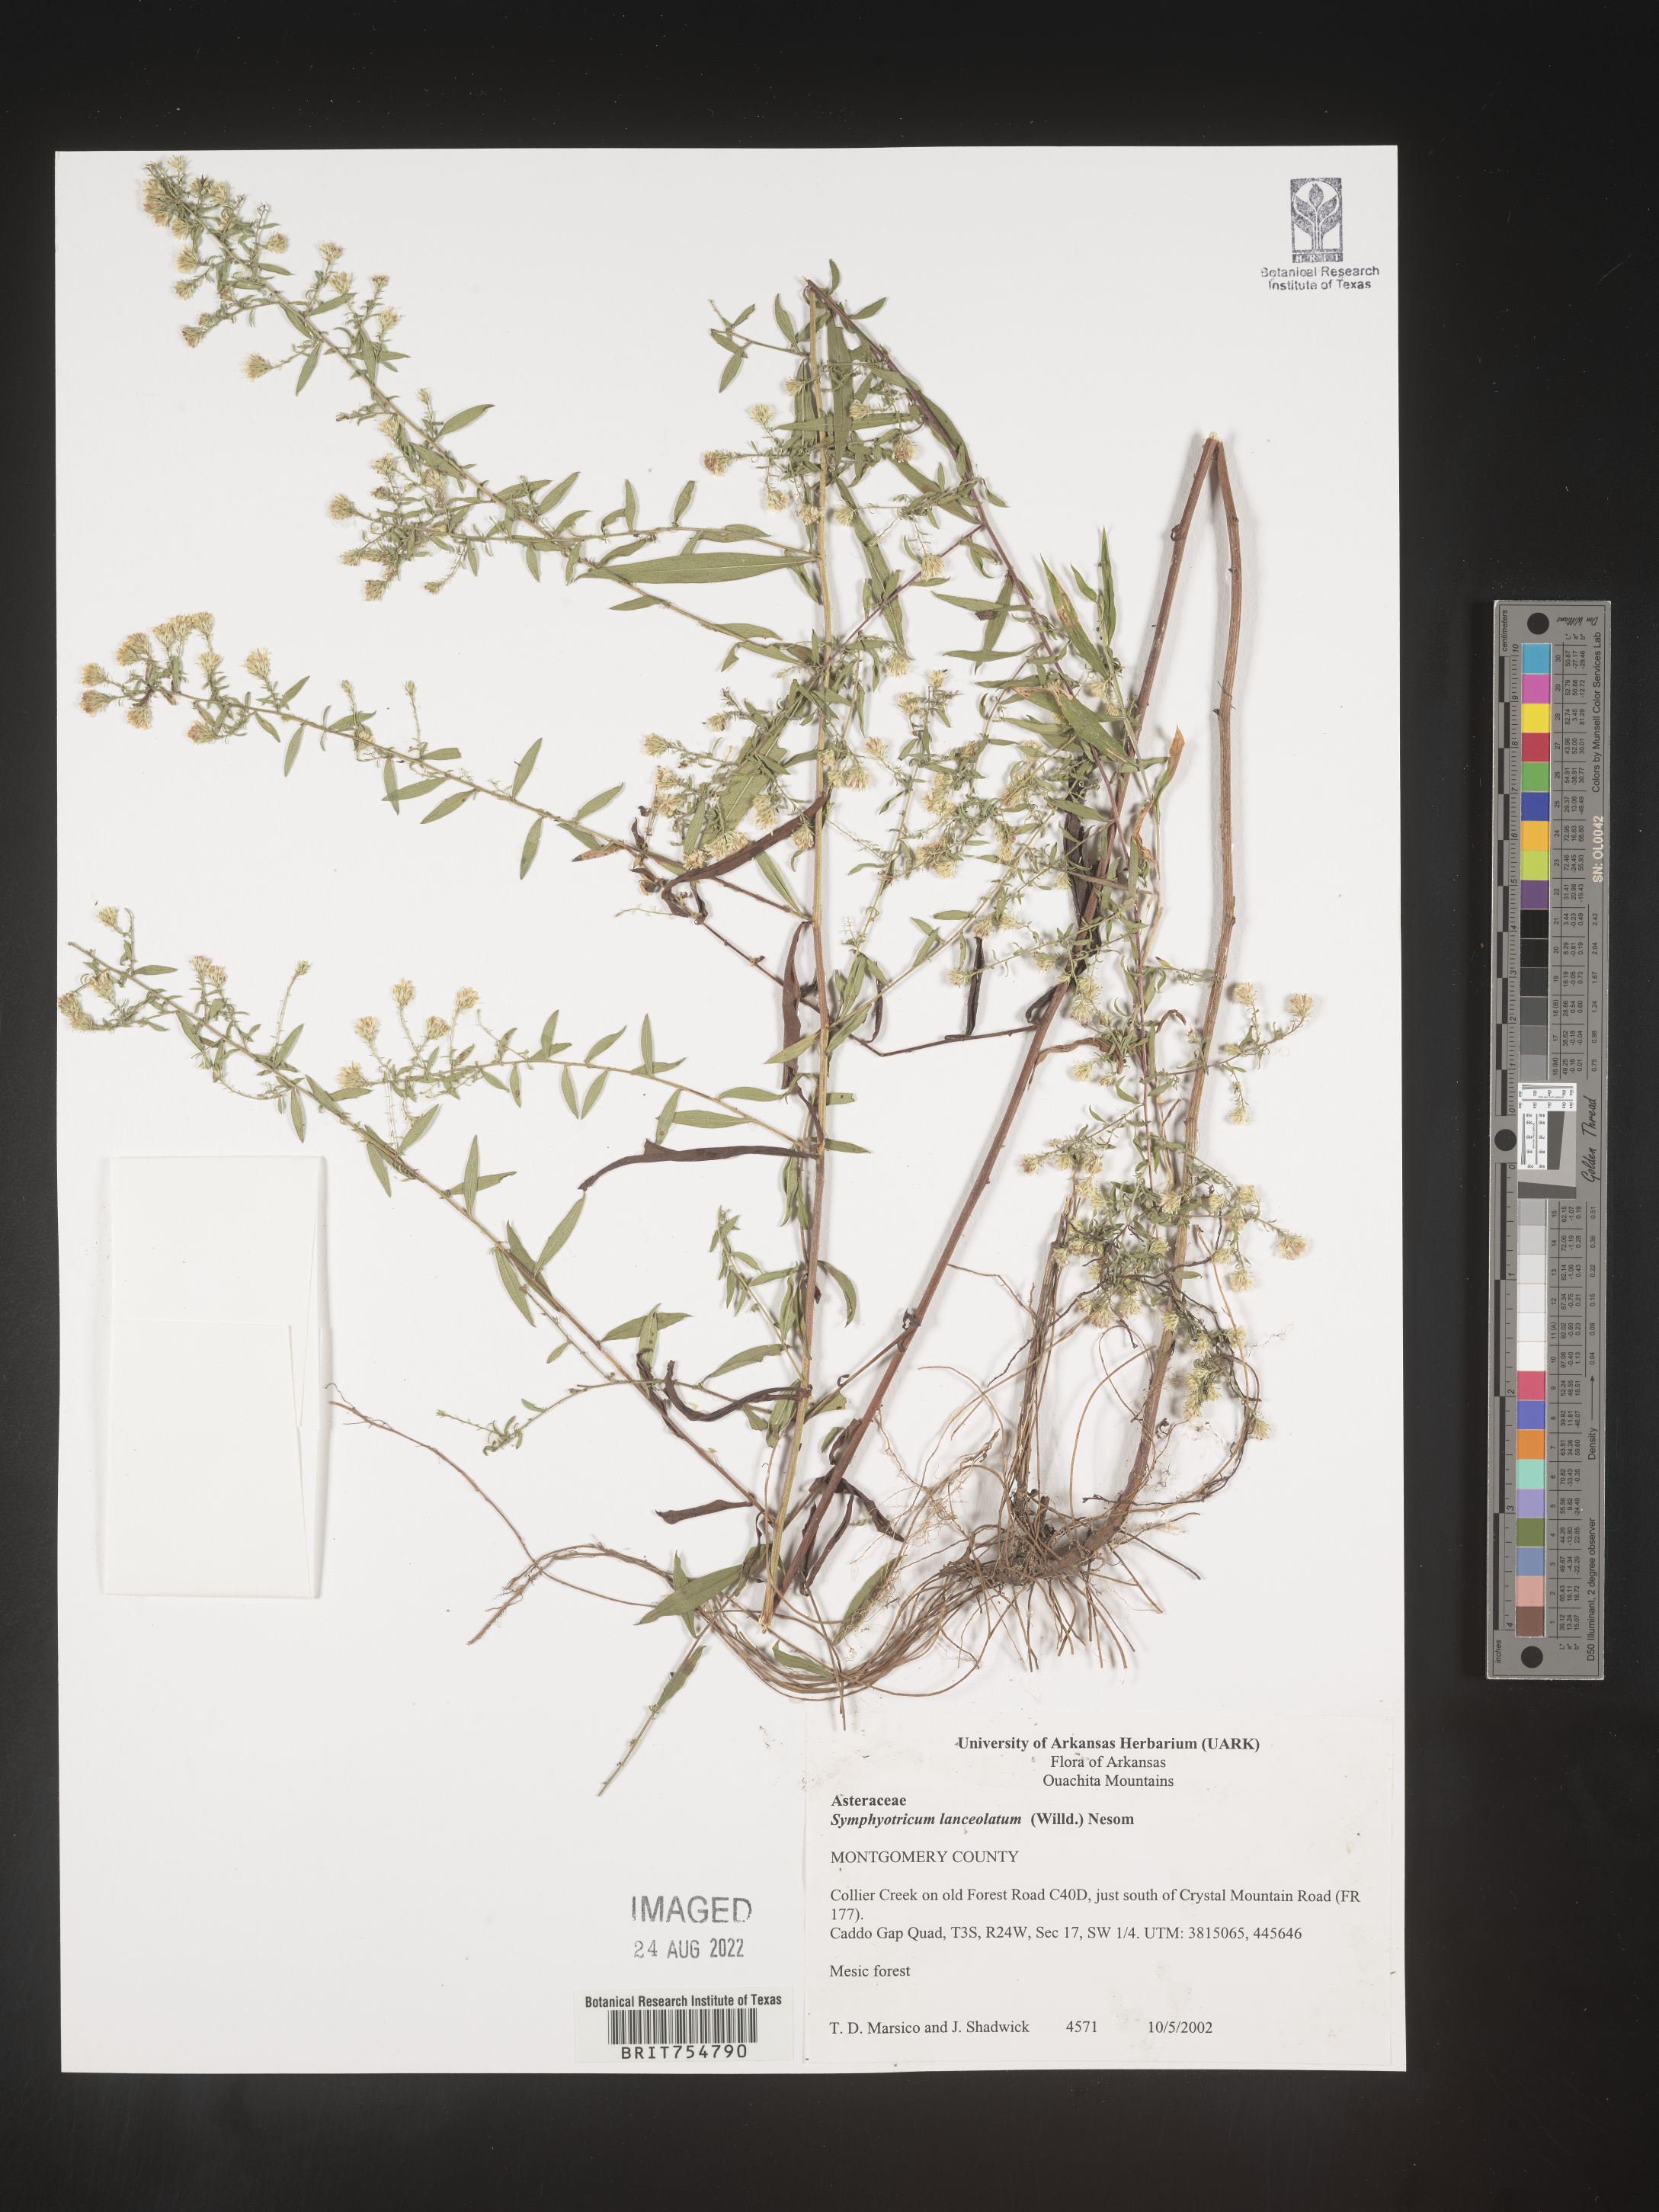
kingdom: Plantae
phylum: Tracheophyta
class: Magnoliopsida
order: Asterales
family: Asteraceae
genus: Symphyotrichum
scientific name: Symphyotrichum
